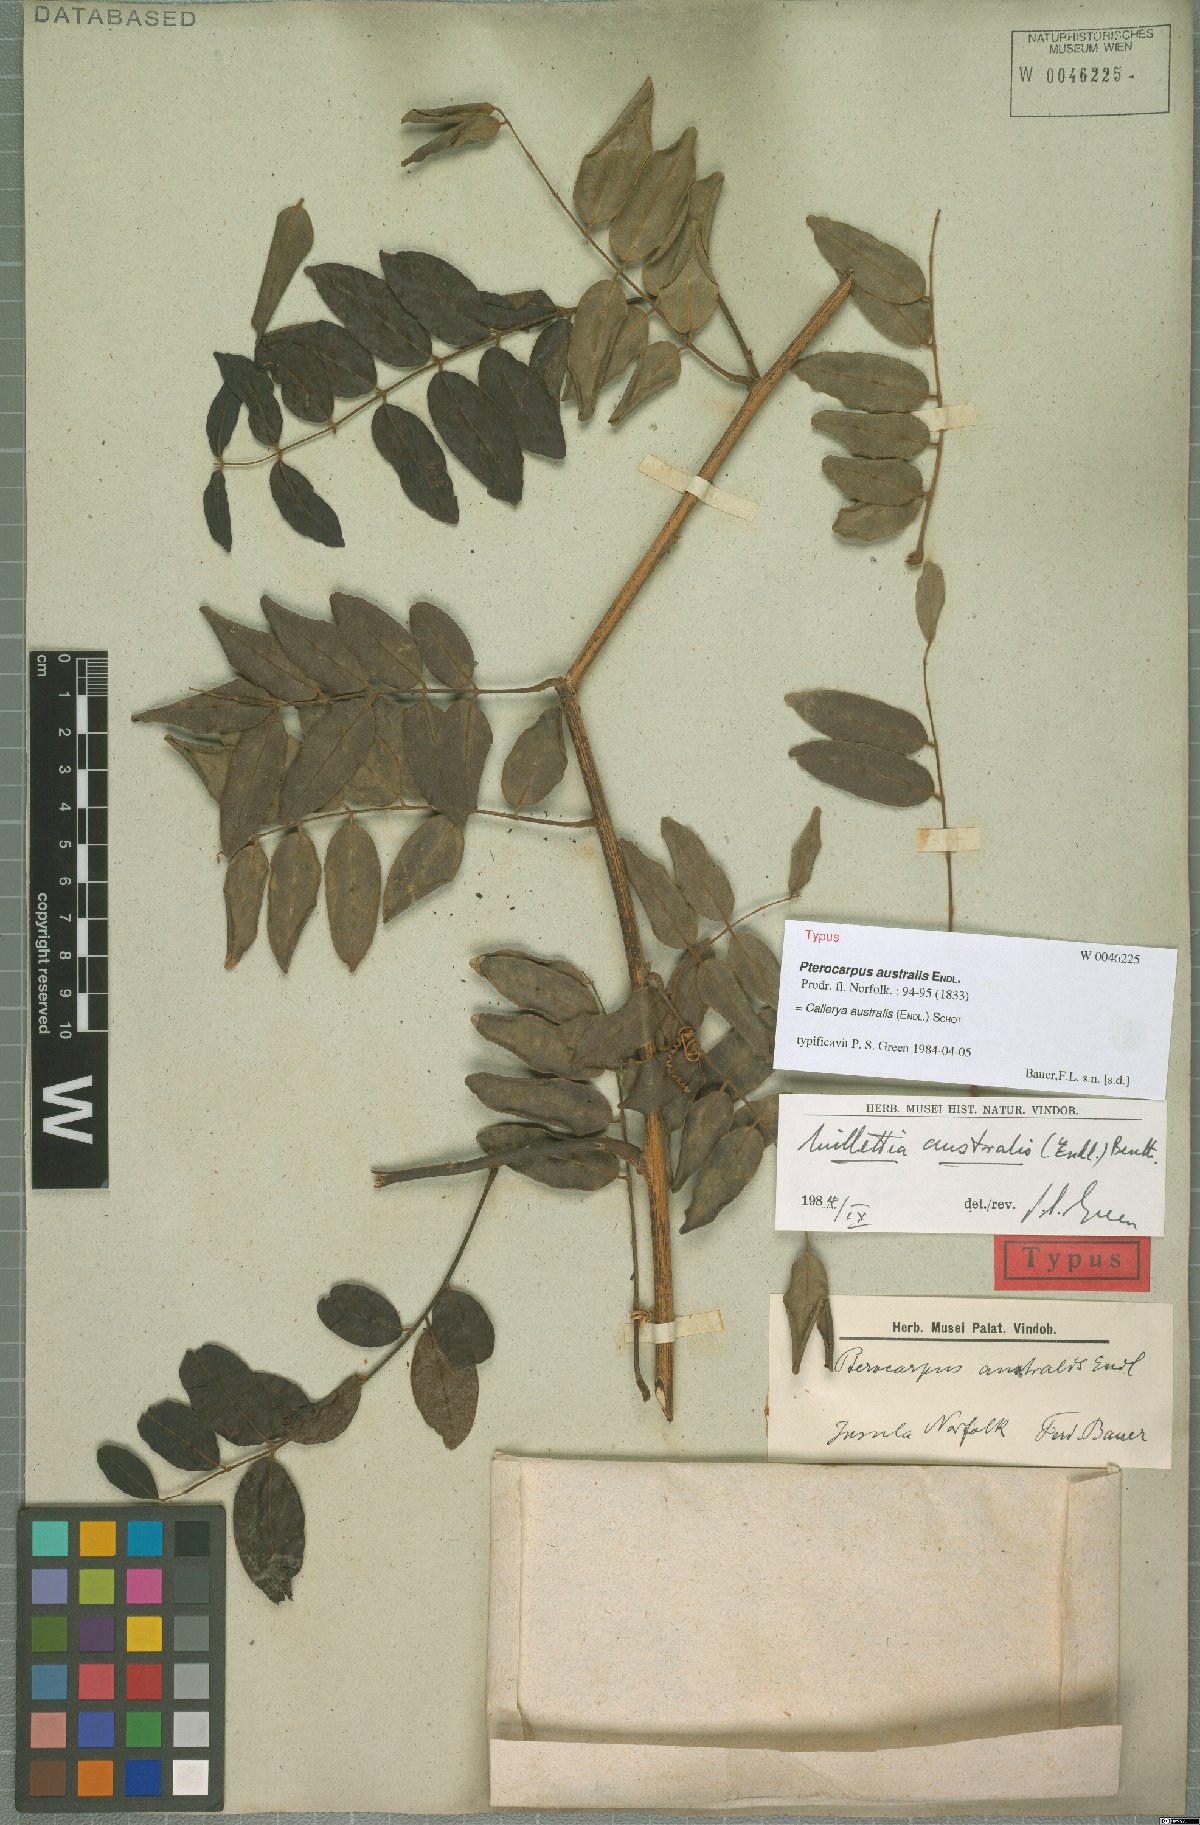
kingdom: Plantae
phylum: Tracheophyta
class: Magnoliopsida
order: Fabales
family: Fabaceae
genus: Austrocallerya
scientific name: Austrocallerya australis
